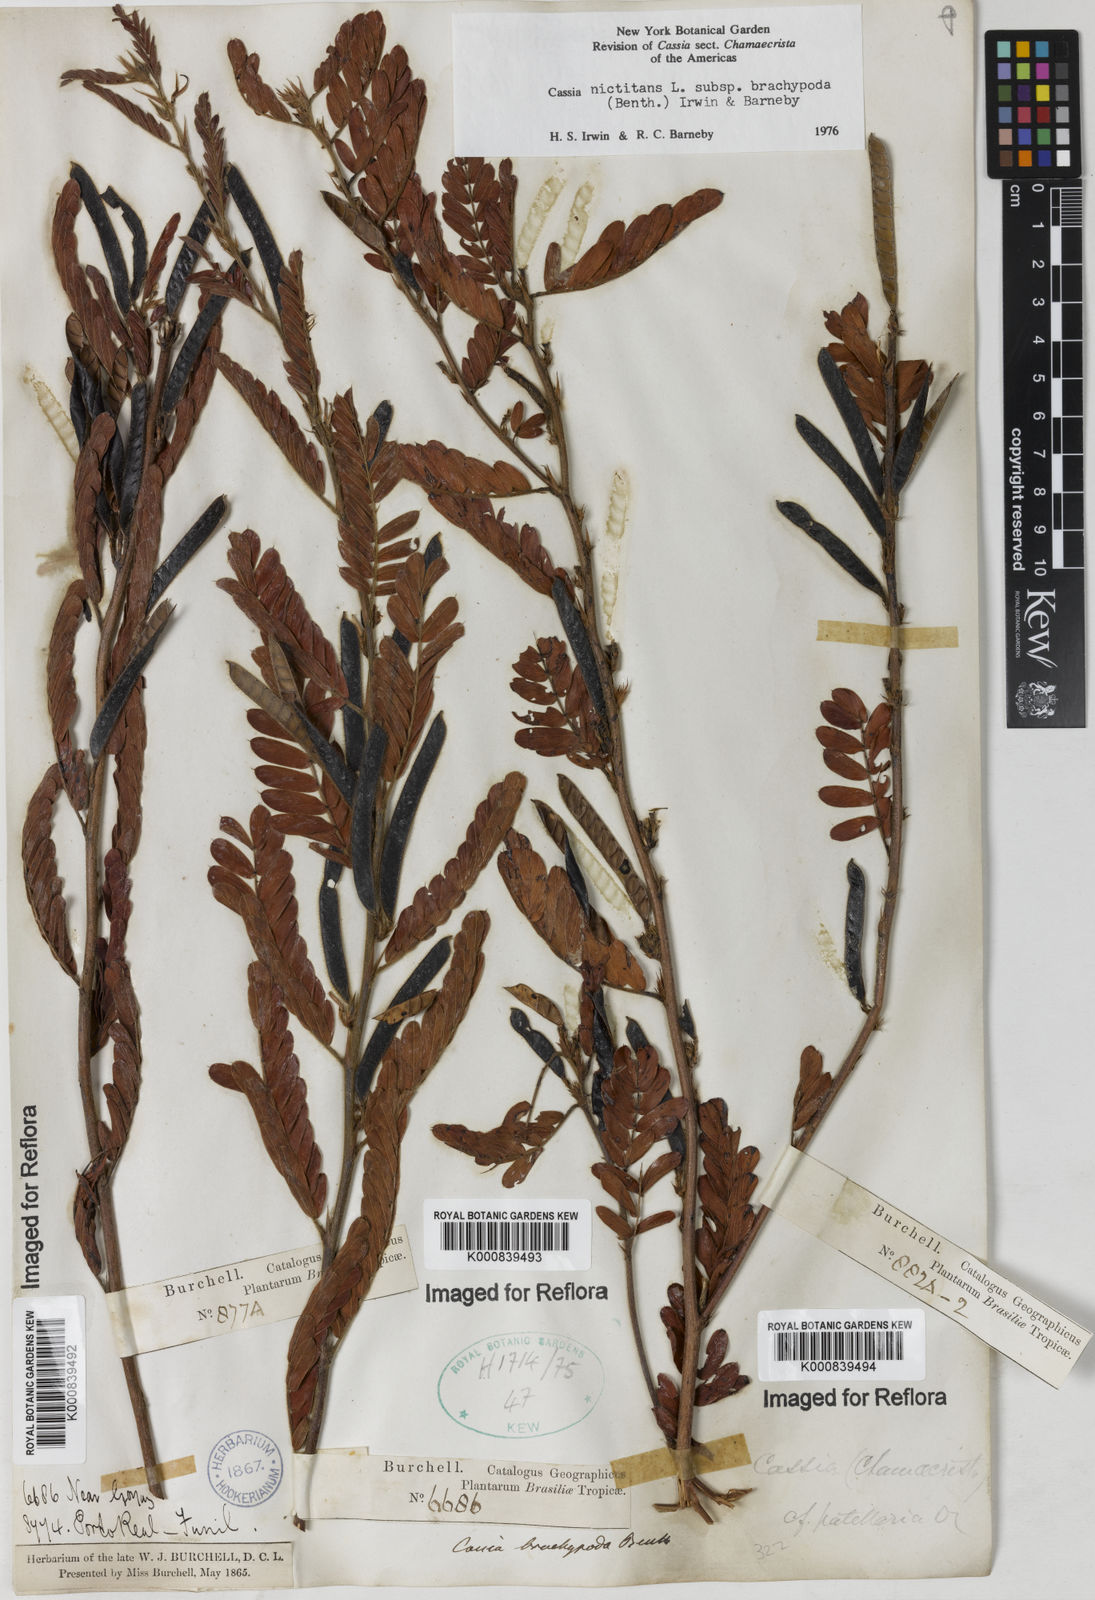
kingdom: Plantae
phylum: Tracheophyta
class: Magnoliopsida
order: Fabales
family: Fabaceae
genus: Chamaecrista
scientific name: Chamaecrista nictitans
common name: Sensitive cassia
